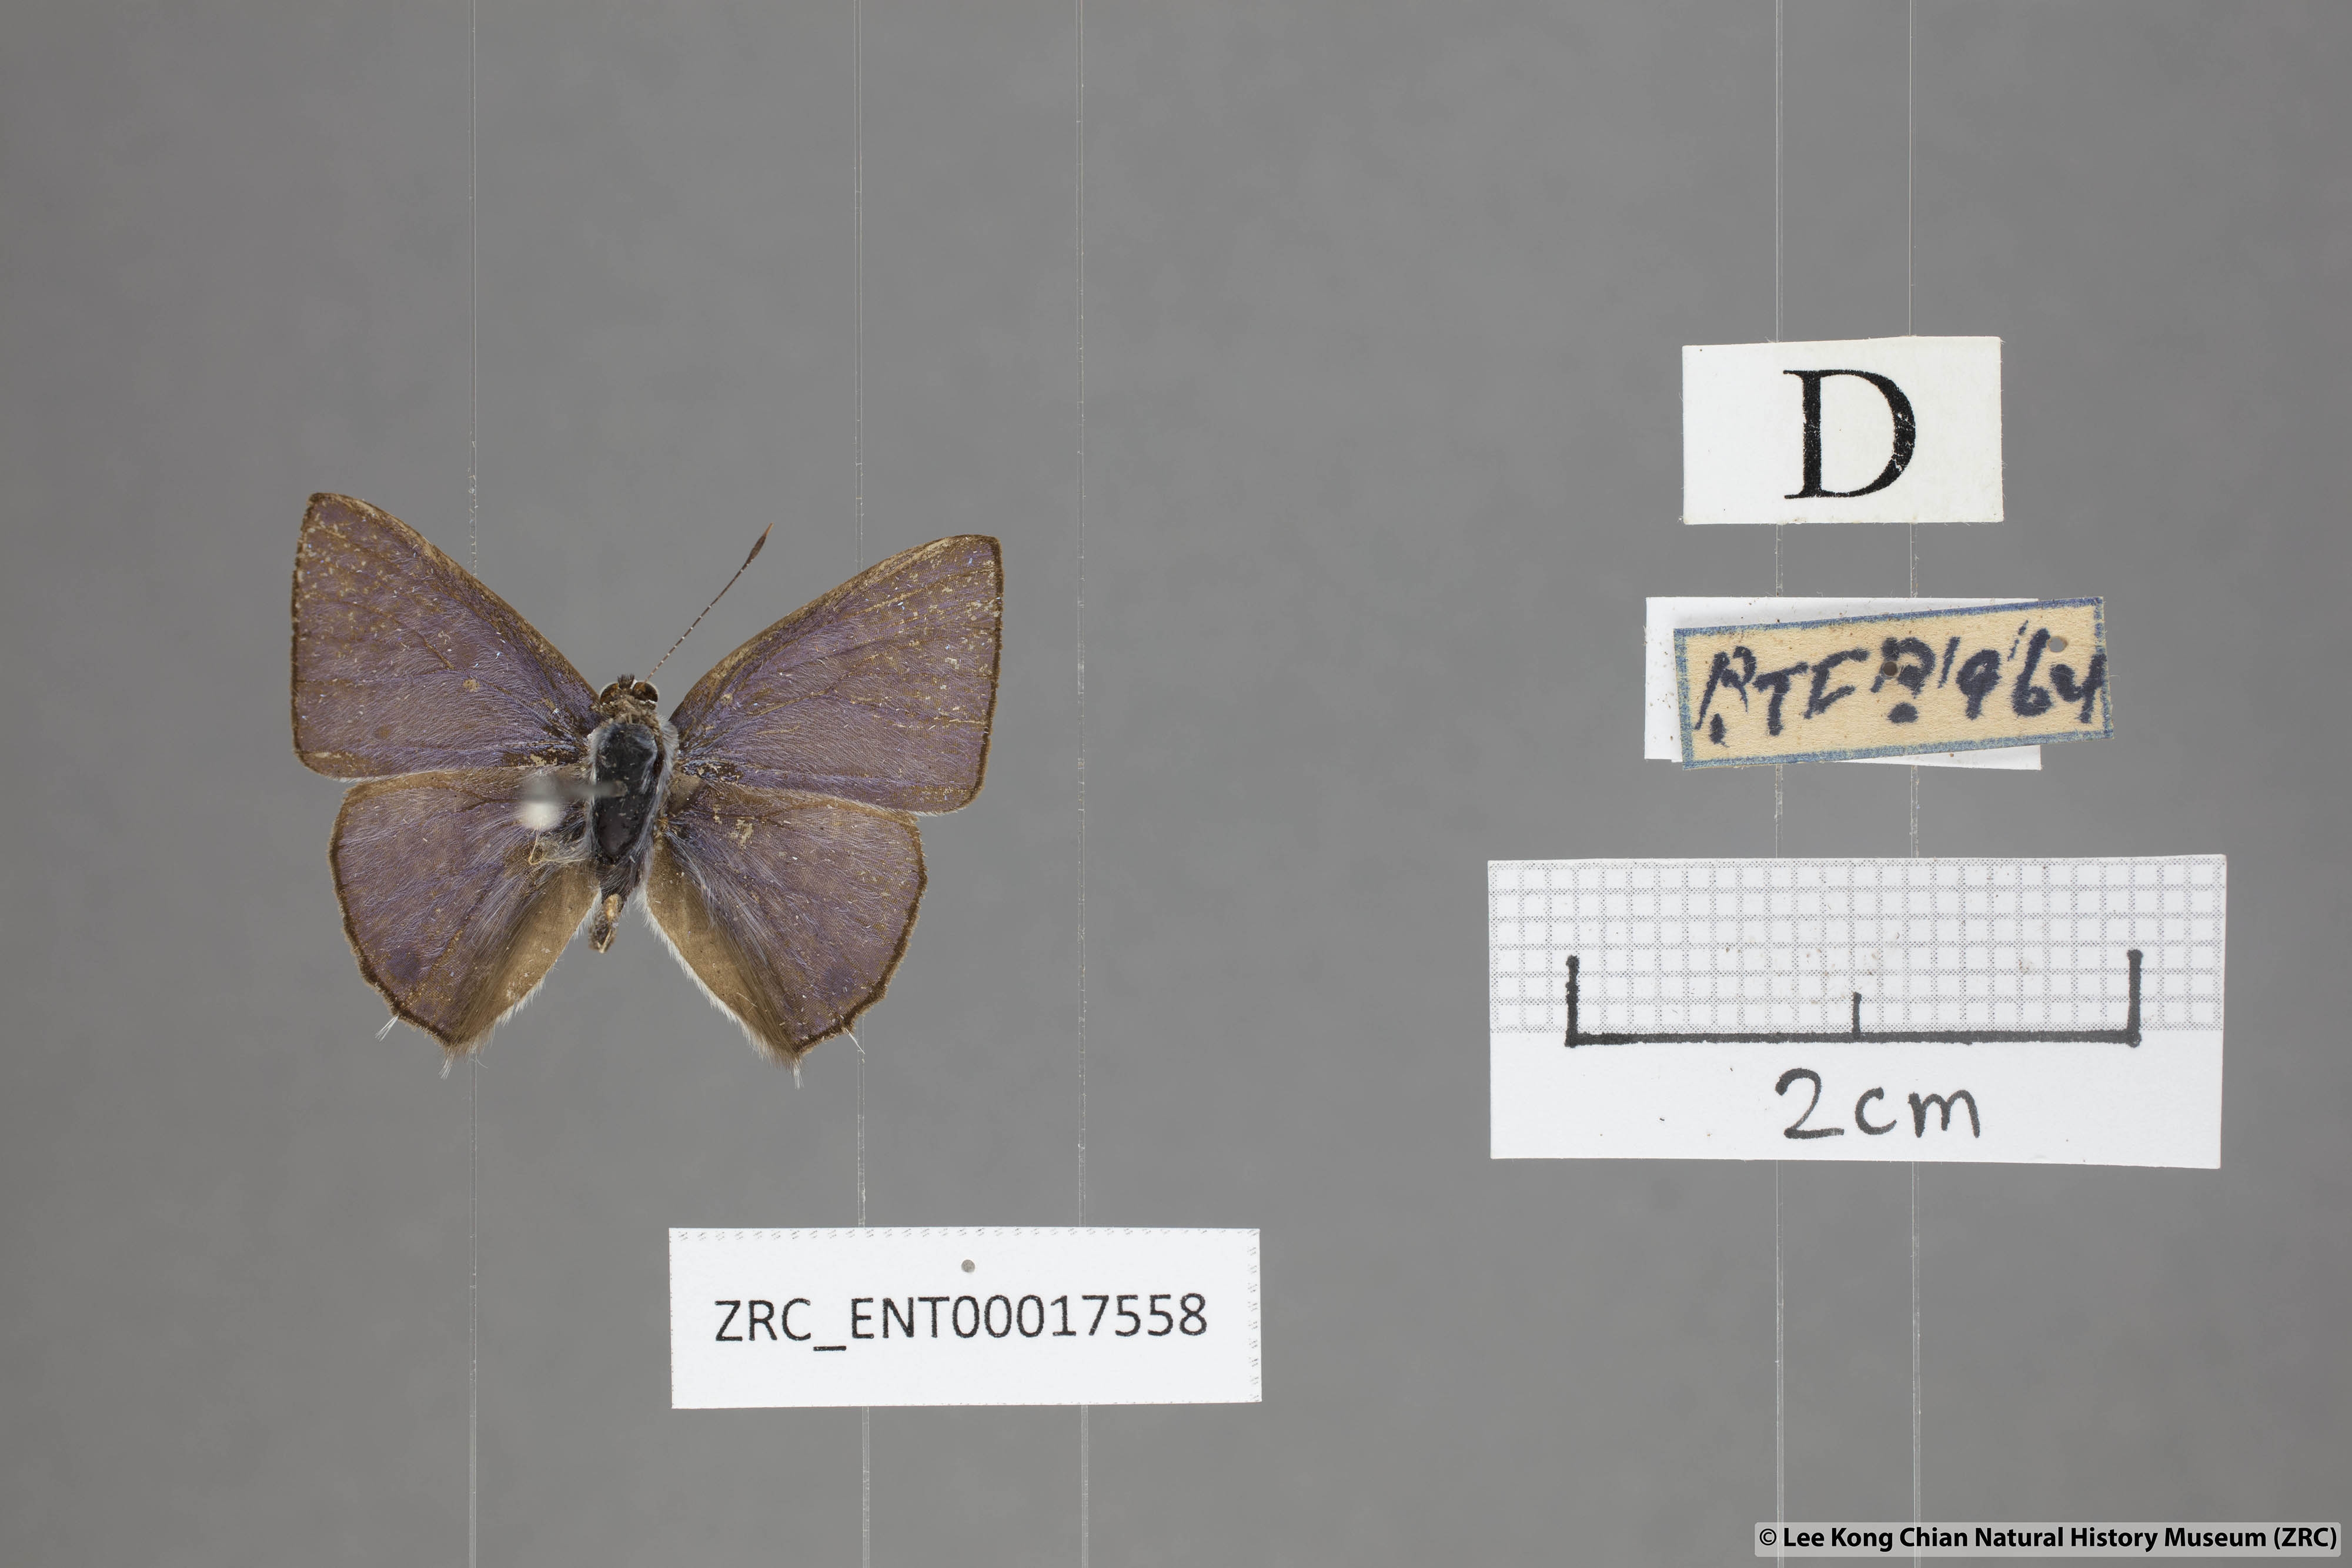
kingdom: Animalia
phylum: Arthropoda
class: Insecta
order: Lepidoptera
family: Lycaenidae
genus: Anthene
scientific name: Anthene lycaenoides
